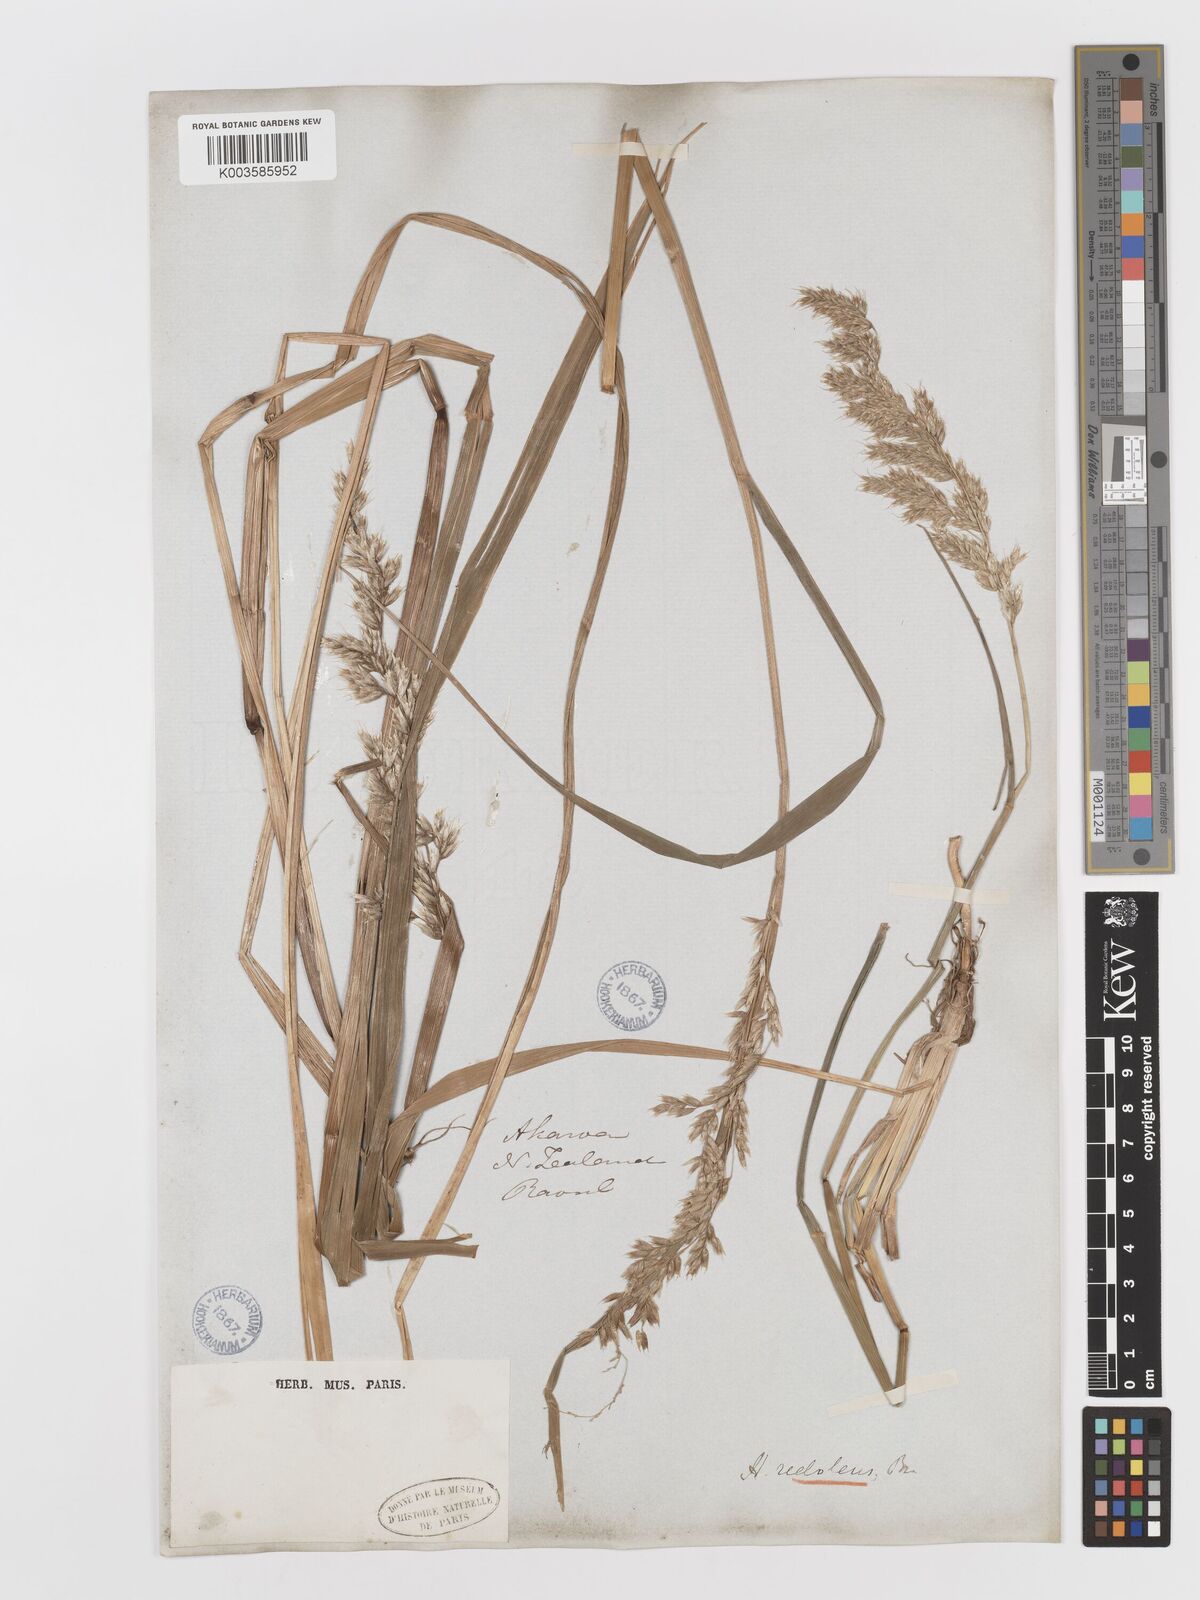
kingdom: Plantae
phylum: Tracheophyta
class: Liliopsida
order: Poales
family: Poaceae
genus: Anthoxanthum
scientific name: Anthoxanthum redolens
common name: Sweet holy grass
